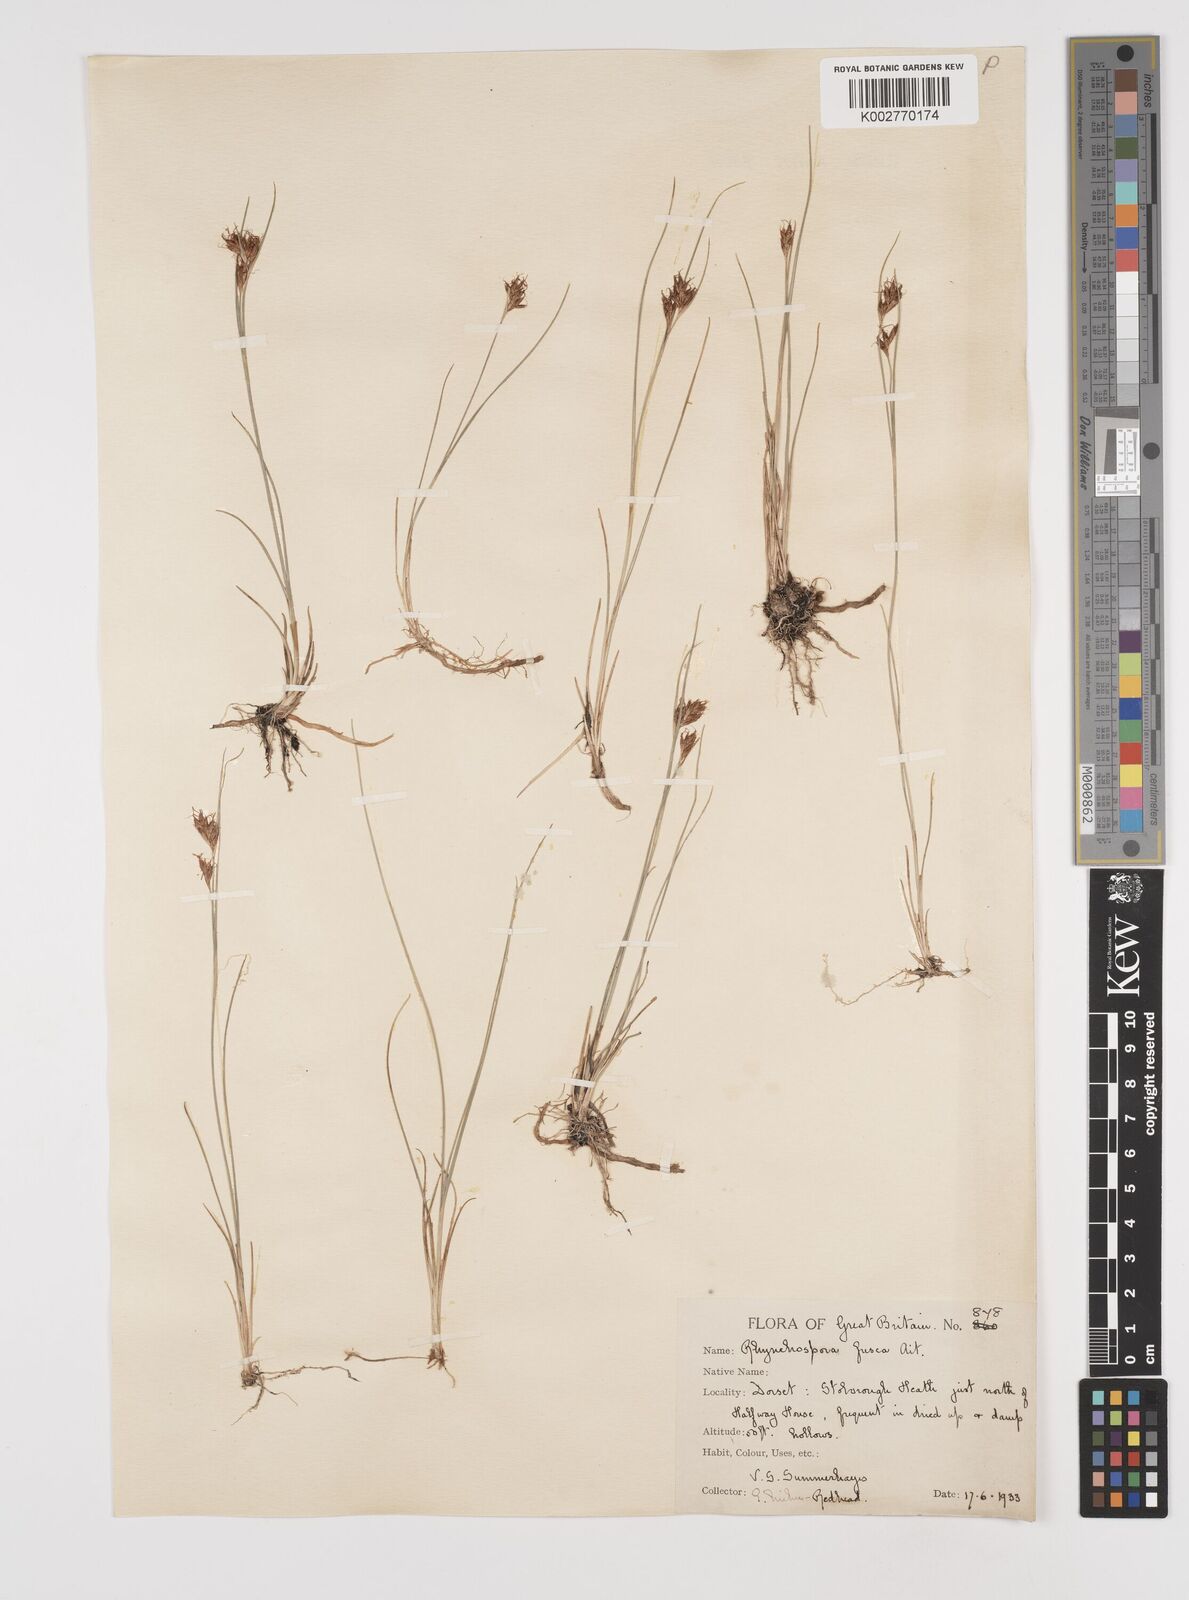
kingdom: Plantae
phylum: Tracheophyta
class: Liliopsida
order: Poales
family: Cyperaceae
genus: Rhynchospora
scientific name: Rhynchospora fusca
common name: Brown beak-sedge
